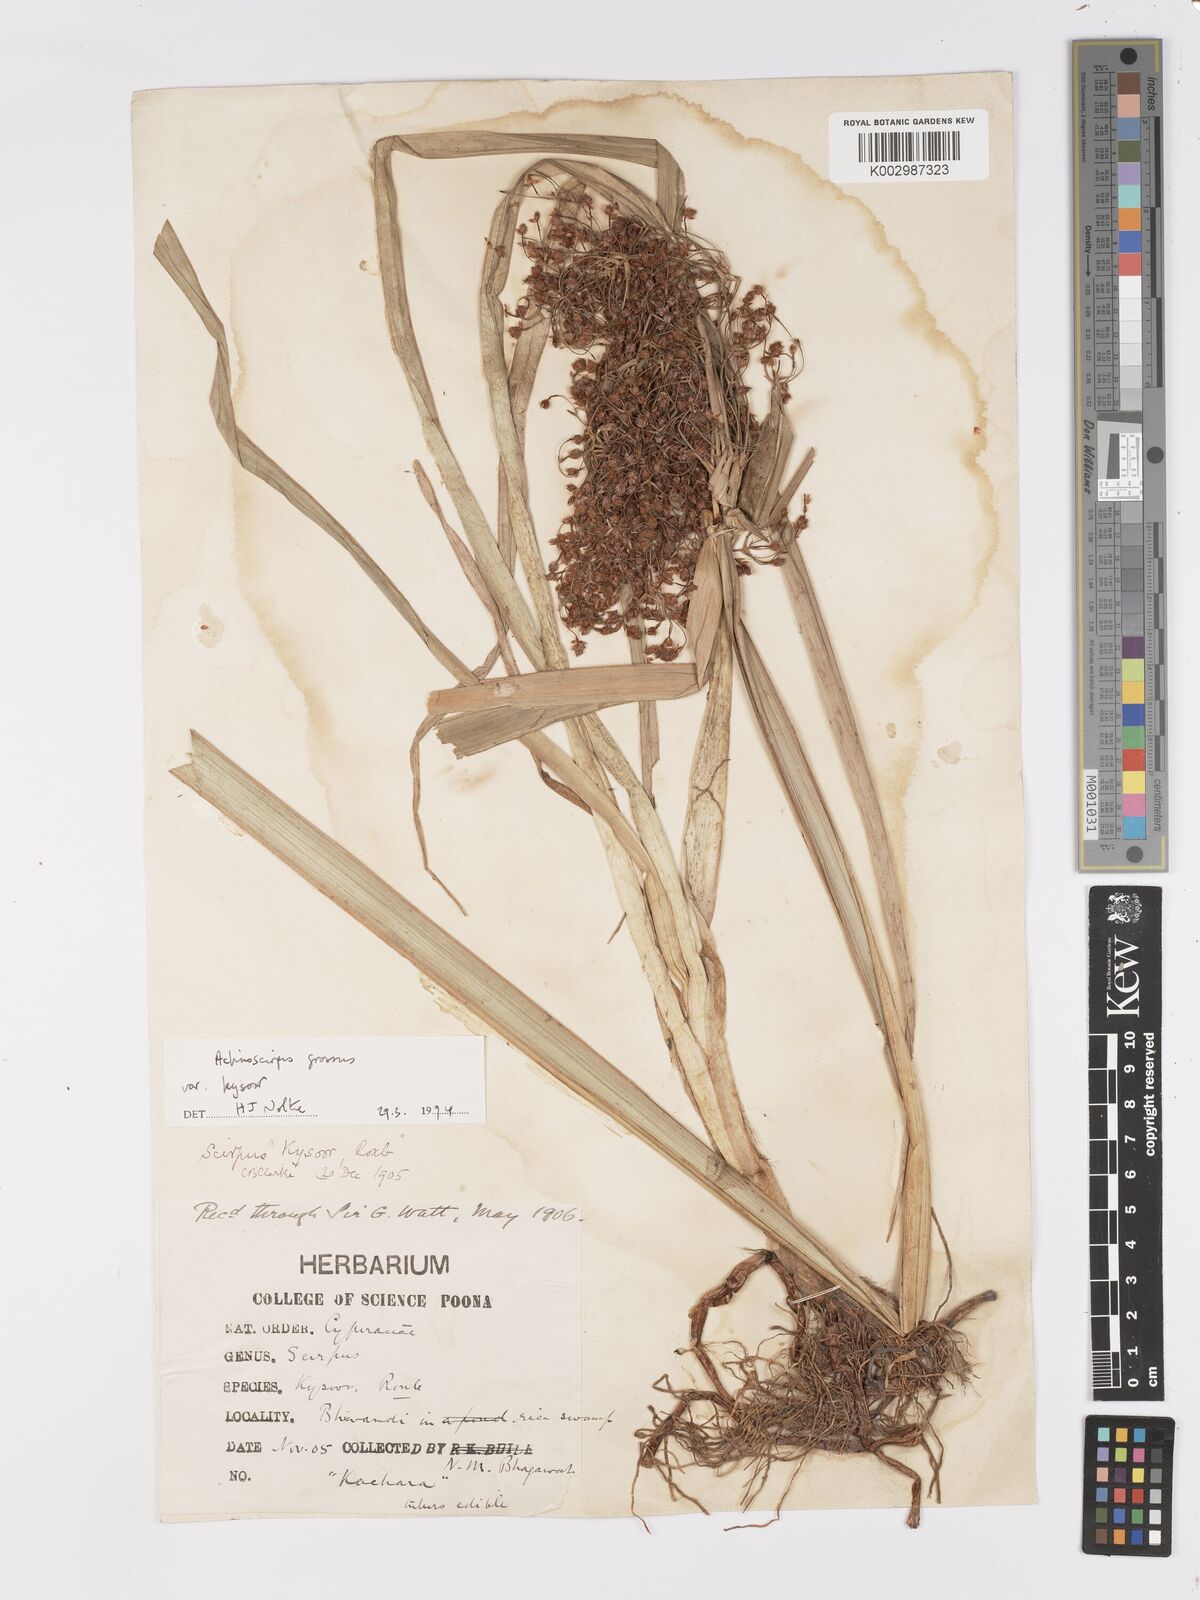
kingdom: Plantae
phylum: Tracheophyta
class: Liliopsida
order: Poales
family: Cyperaceae
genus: Actinoscirpus
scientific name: Actinoscirpus grossus
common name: Giant bur rush
